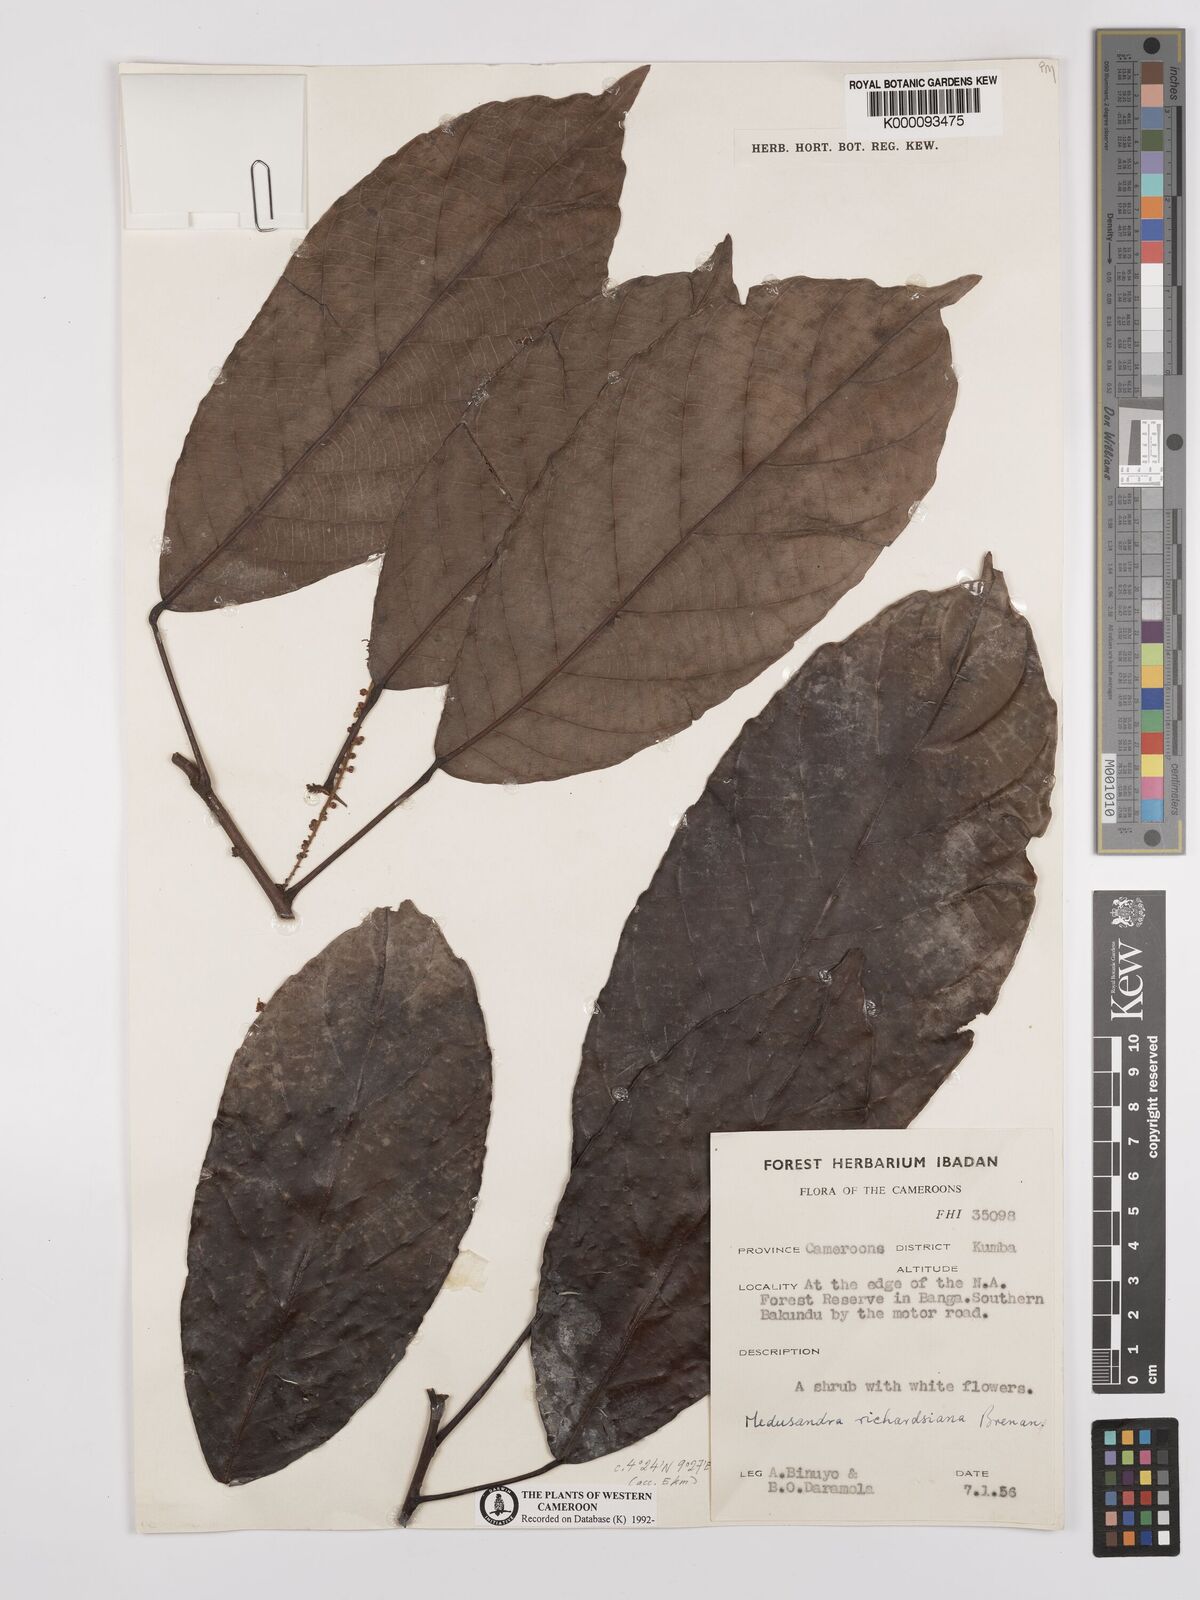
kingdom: Plantae
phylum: Tracheophyta
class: Magnoliopsida
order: Saxifragales
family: Peridiscaceae
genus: Medusandra
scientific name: Medusandra richardsiana
